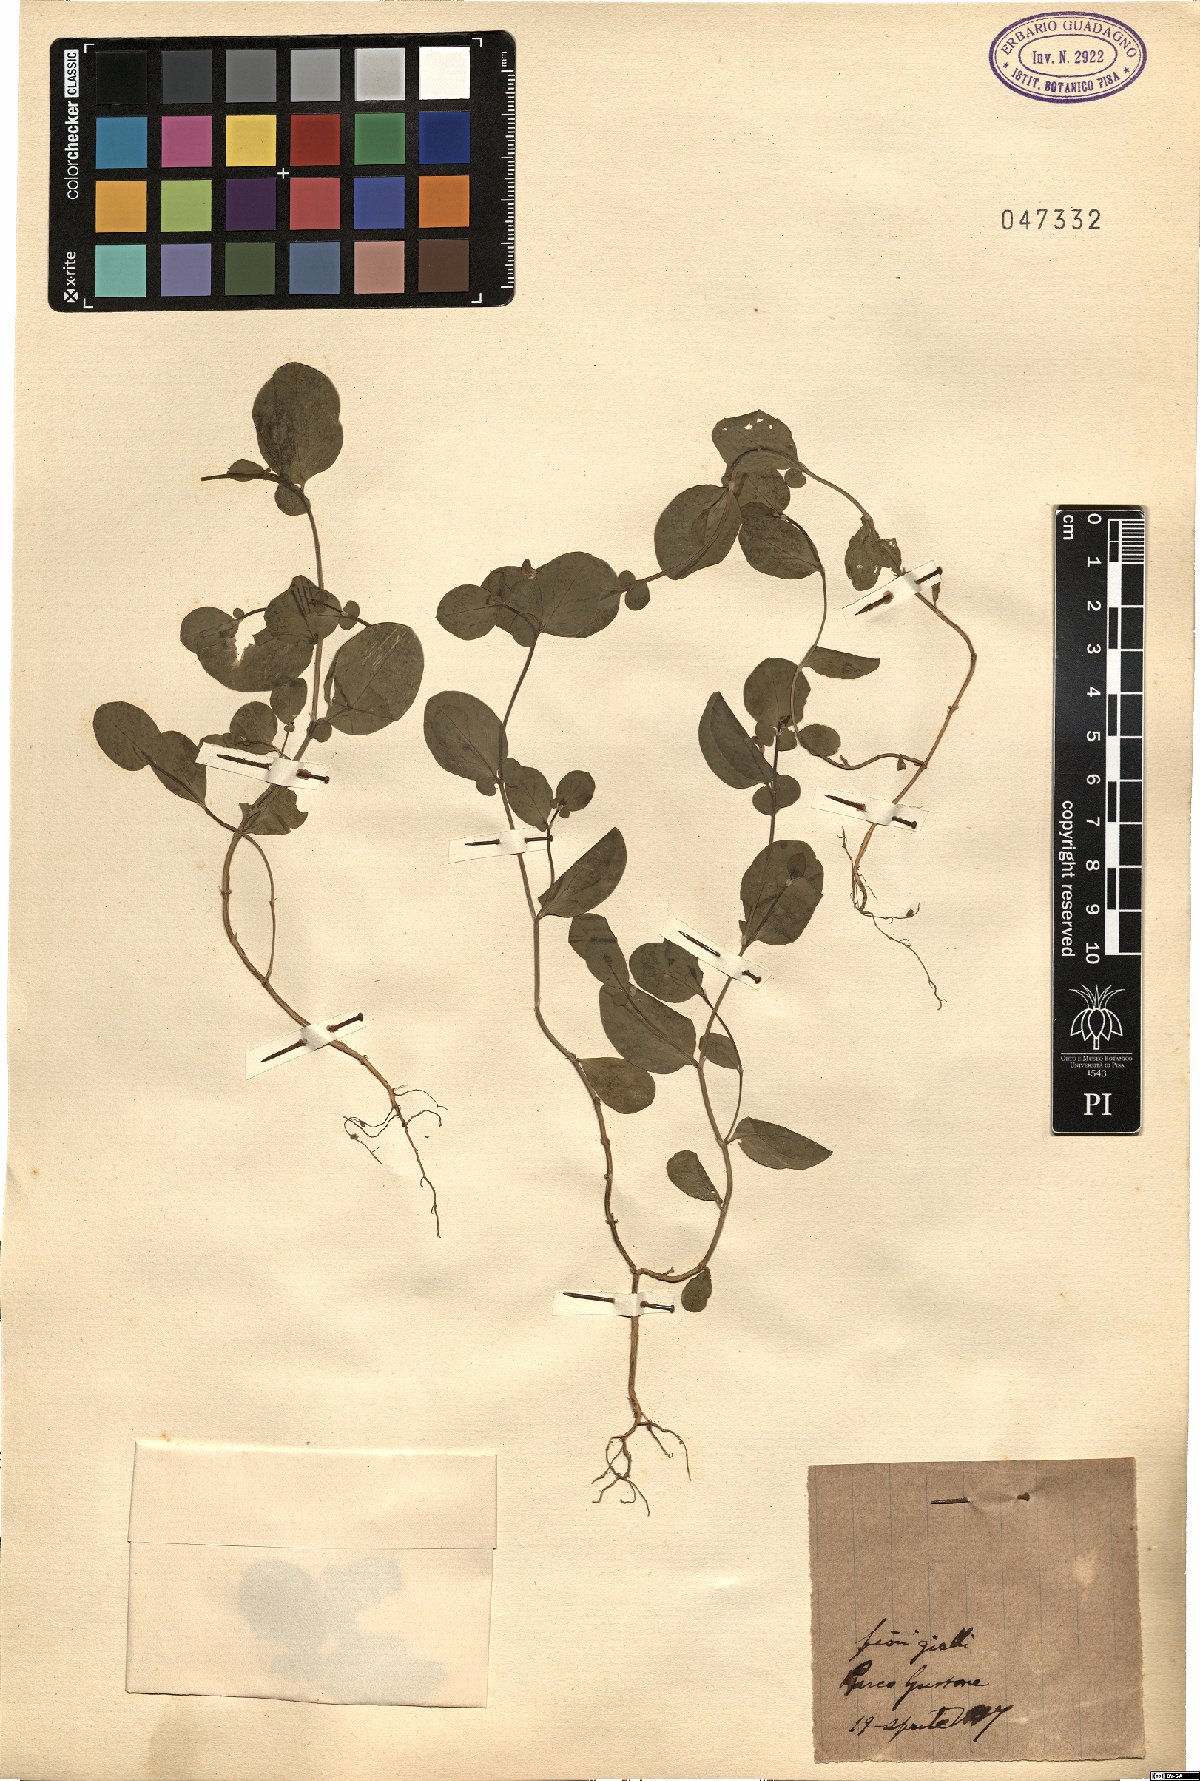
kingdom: Plantae
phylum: Tracheophyta
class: Magnoliopsida
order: Fabales
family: Fabaceae
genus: Coronilla
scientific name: Coronilla
